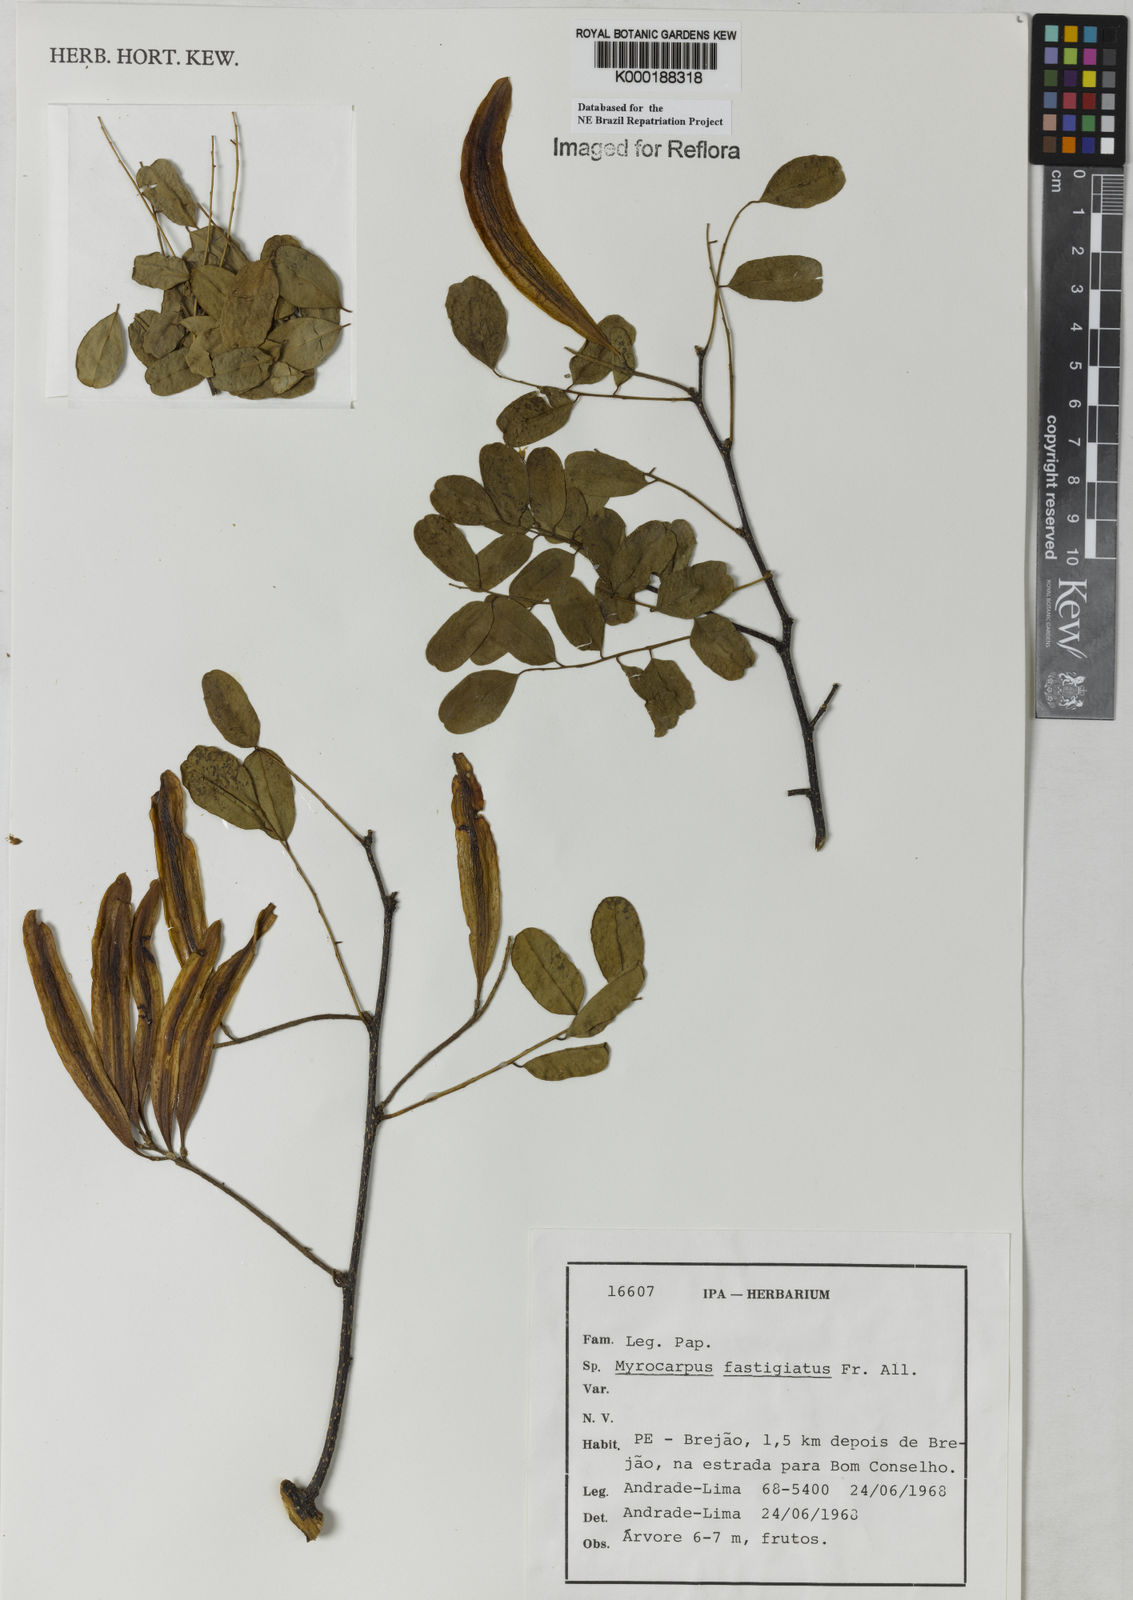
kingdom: Plantae
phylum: Tracheophyta
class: Magnoliopsida
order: Fabales
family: Fabaceae
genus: Myrocarpus
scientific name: Myrocarpus fastigiatus
